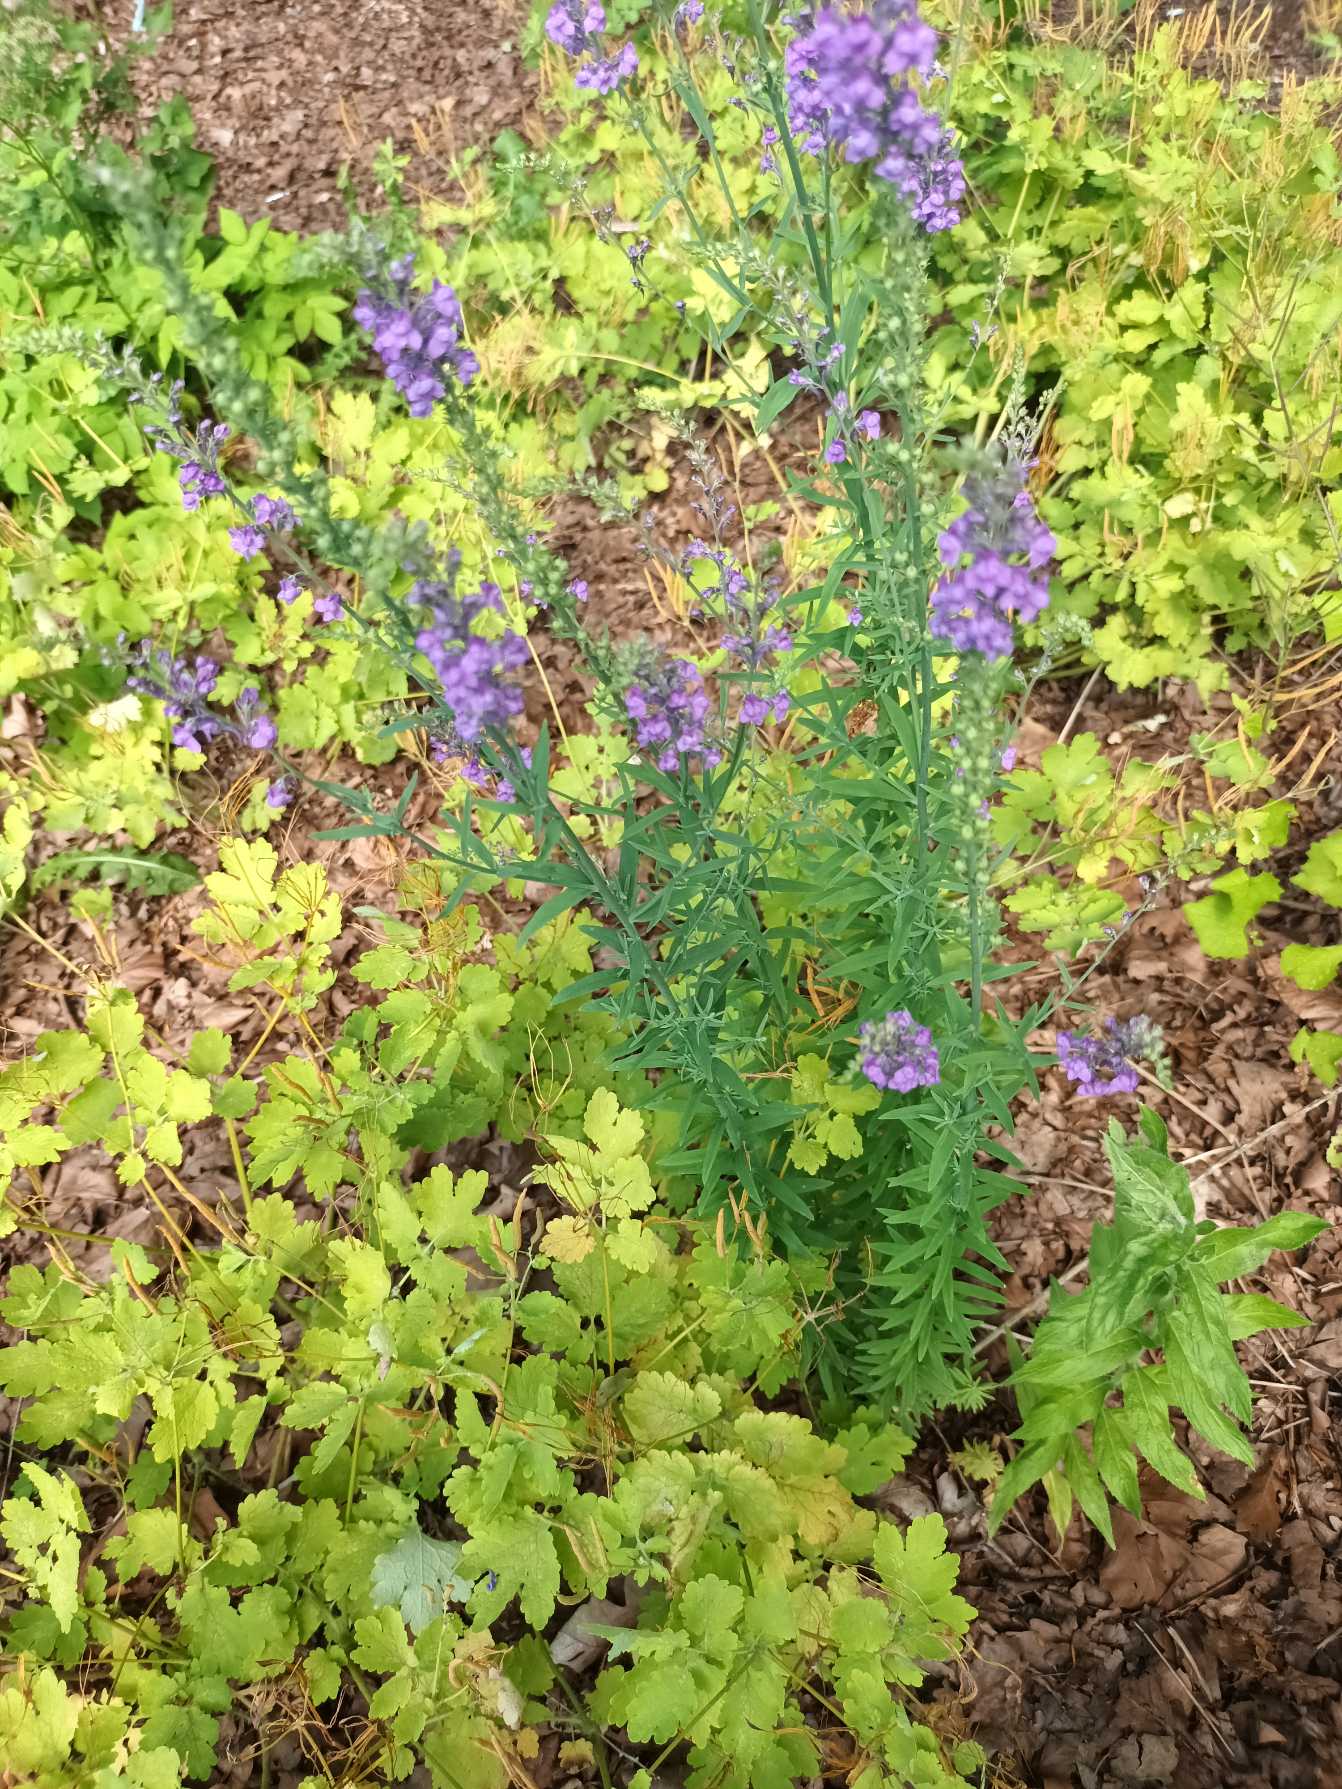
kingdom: Plantae
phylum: Tracheophyta
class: Magnoliopsida
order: Lamiales
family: Plantaginaceae
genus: Linaria
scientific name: Linaria purpurea
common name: Purpur-torskemund
